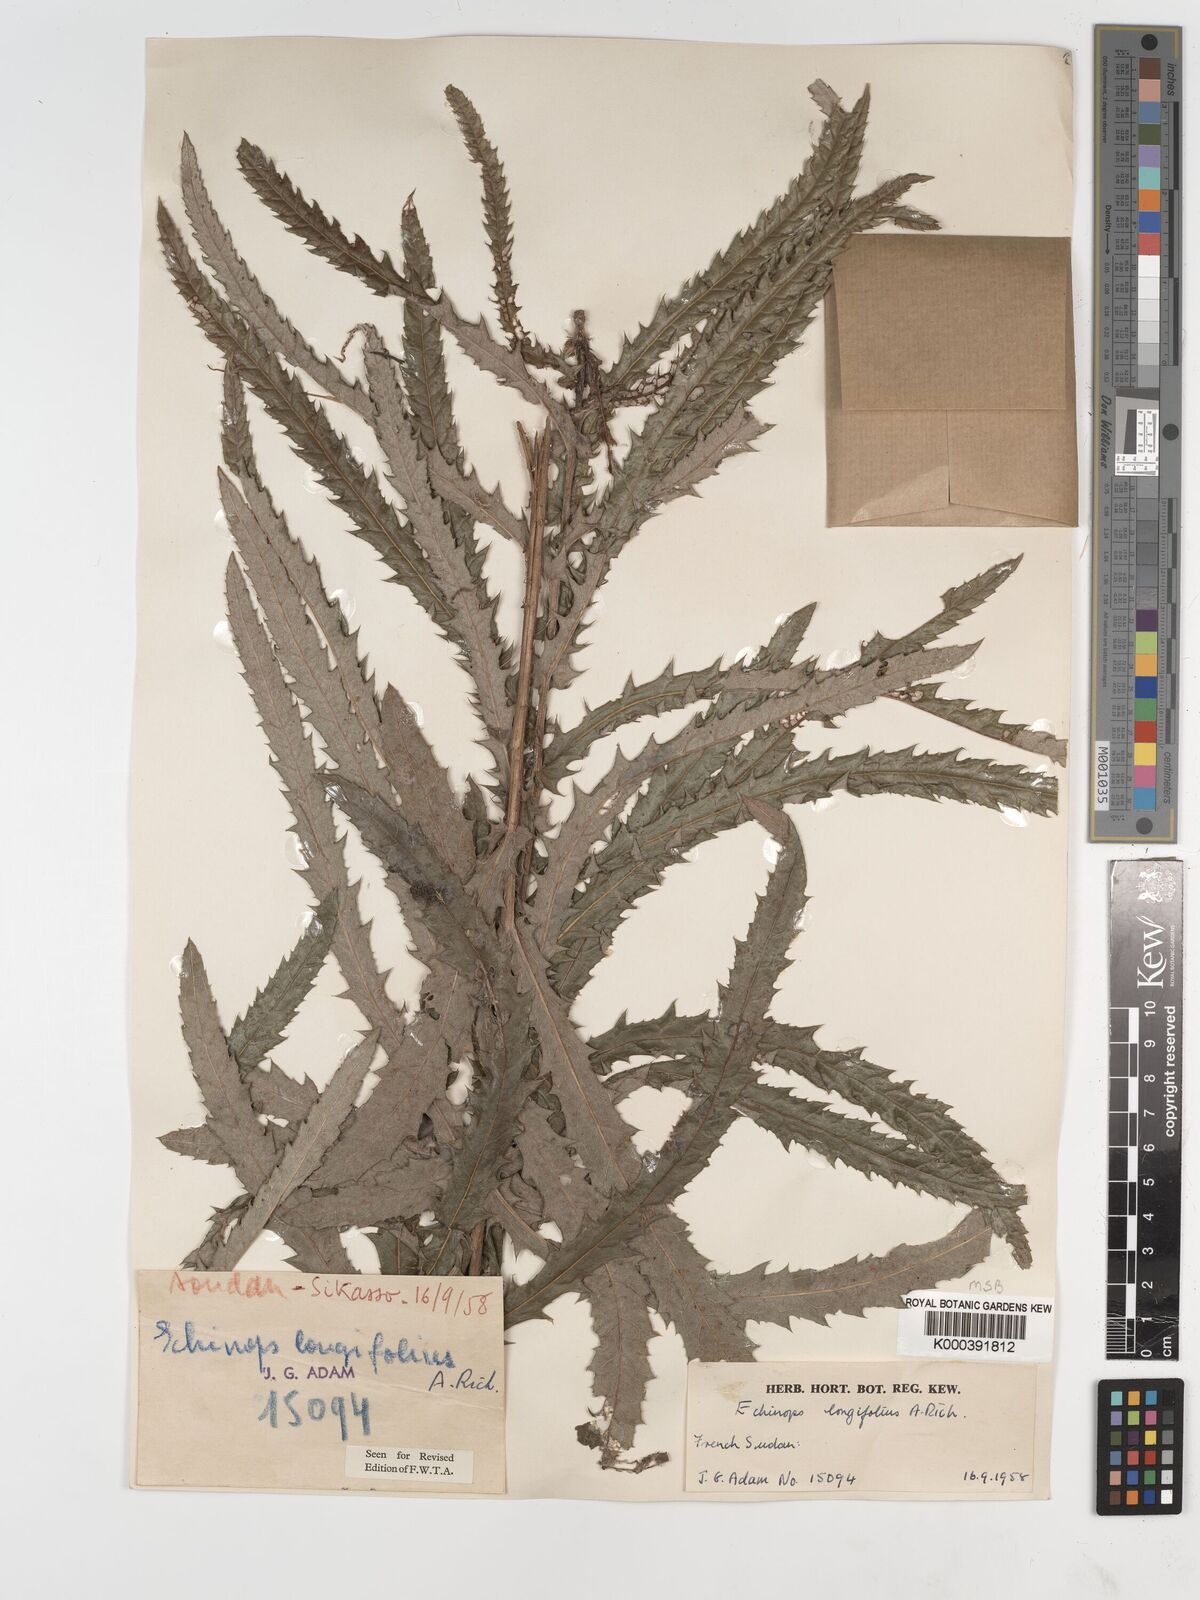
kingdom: Plantae
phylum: Tracheophyta
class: Magnoliopsida
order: Asterales
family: Asteraceae
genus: Echinops
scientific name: Echinops longifolius
